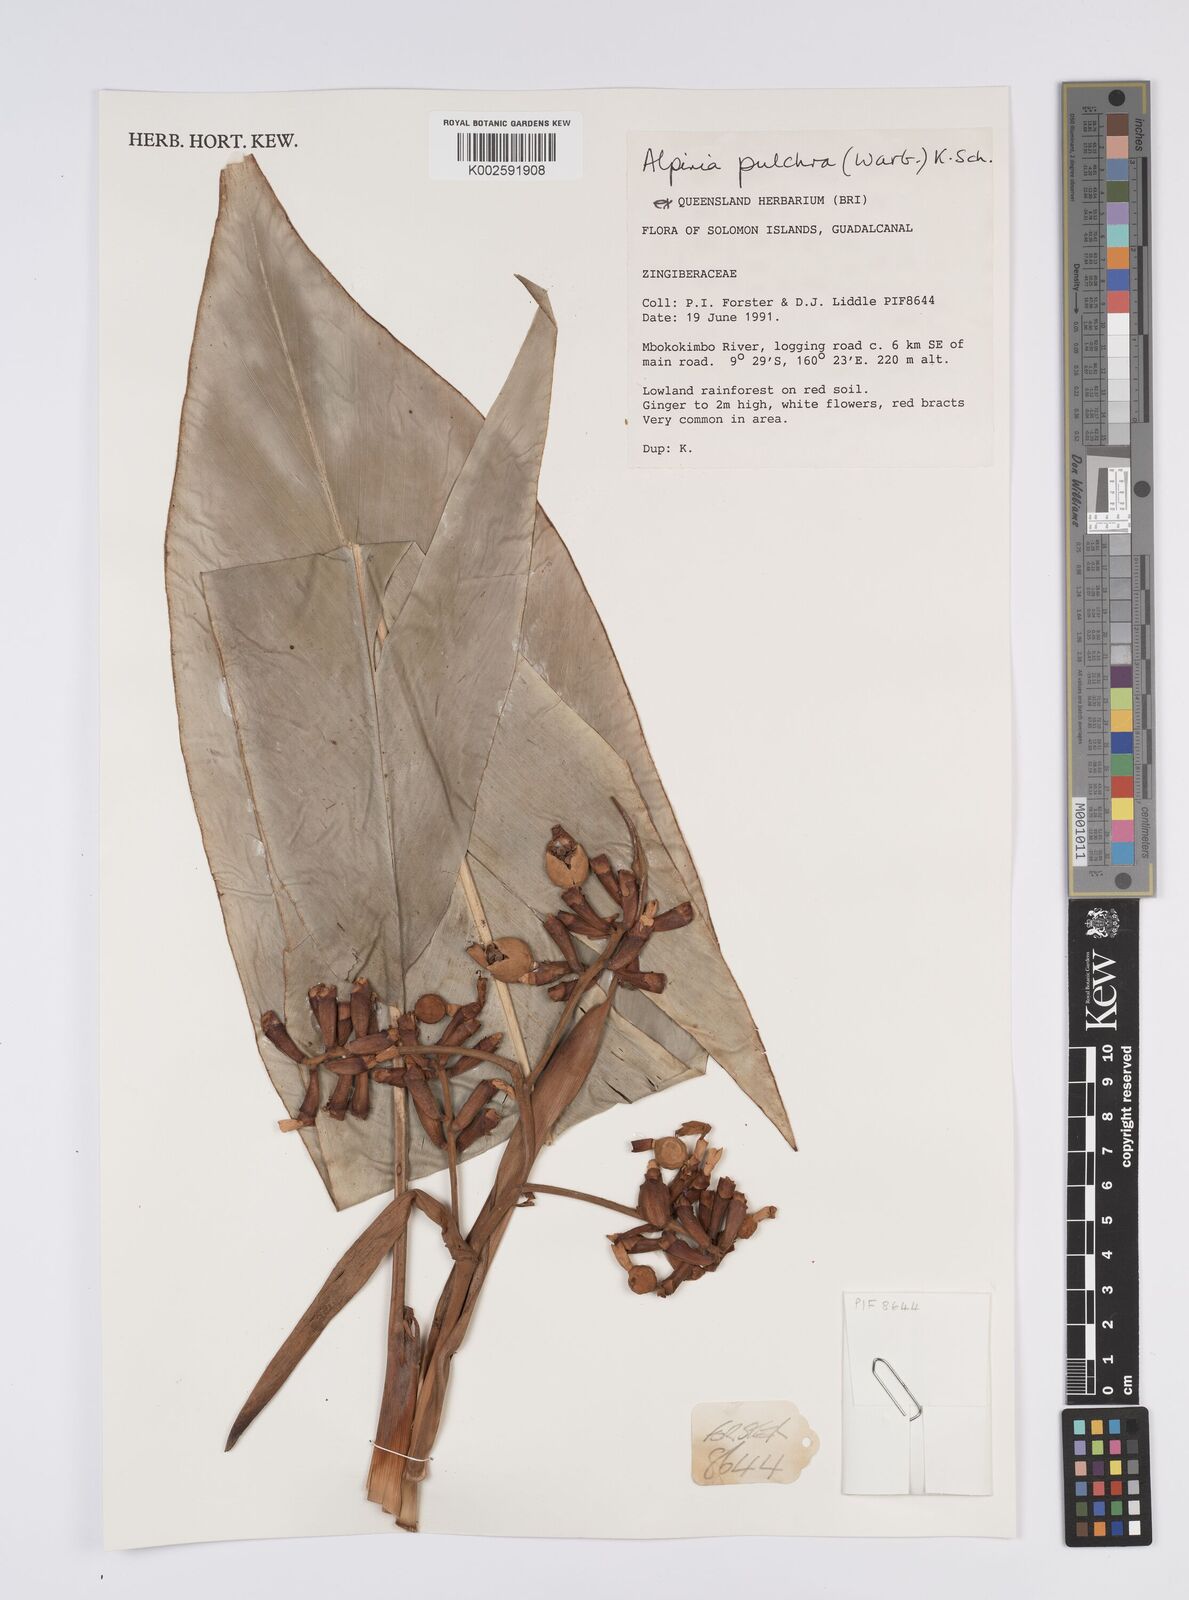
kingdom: Plantae
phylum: Tracheophyta
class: Liliopsida
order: Zingiberales
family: Zingiberaceae
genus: Alpinia
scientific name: Alpinia pulchra
